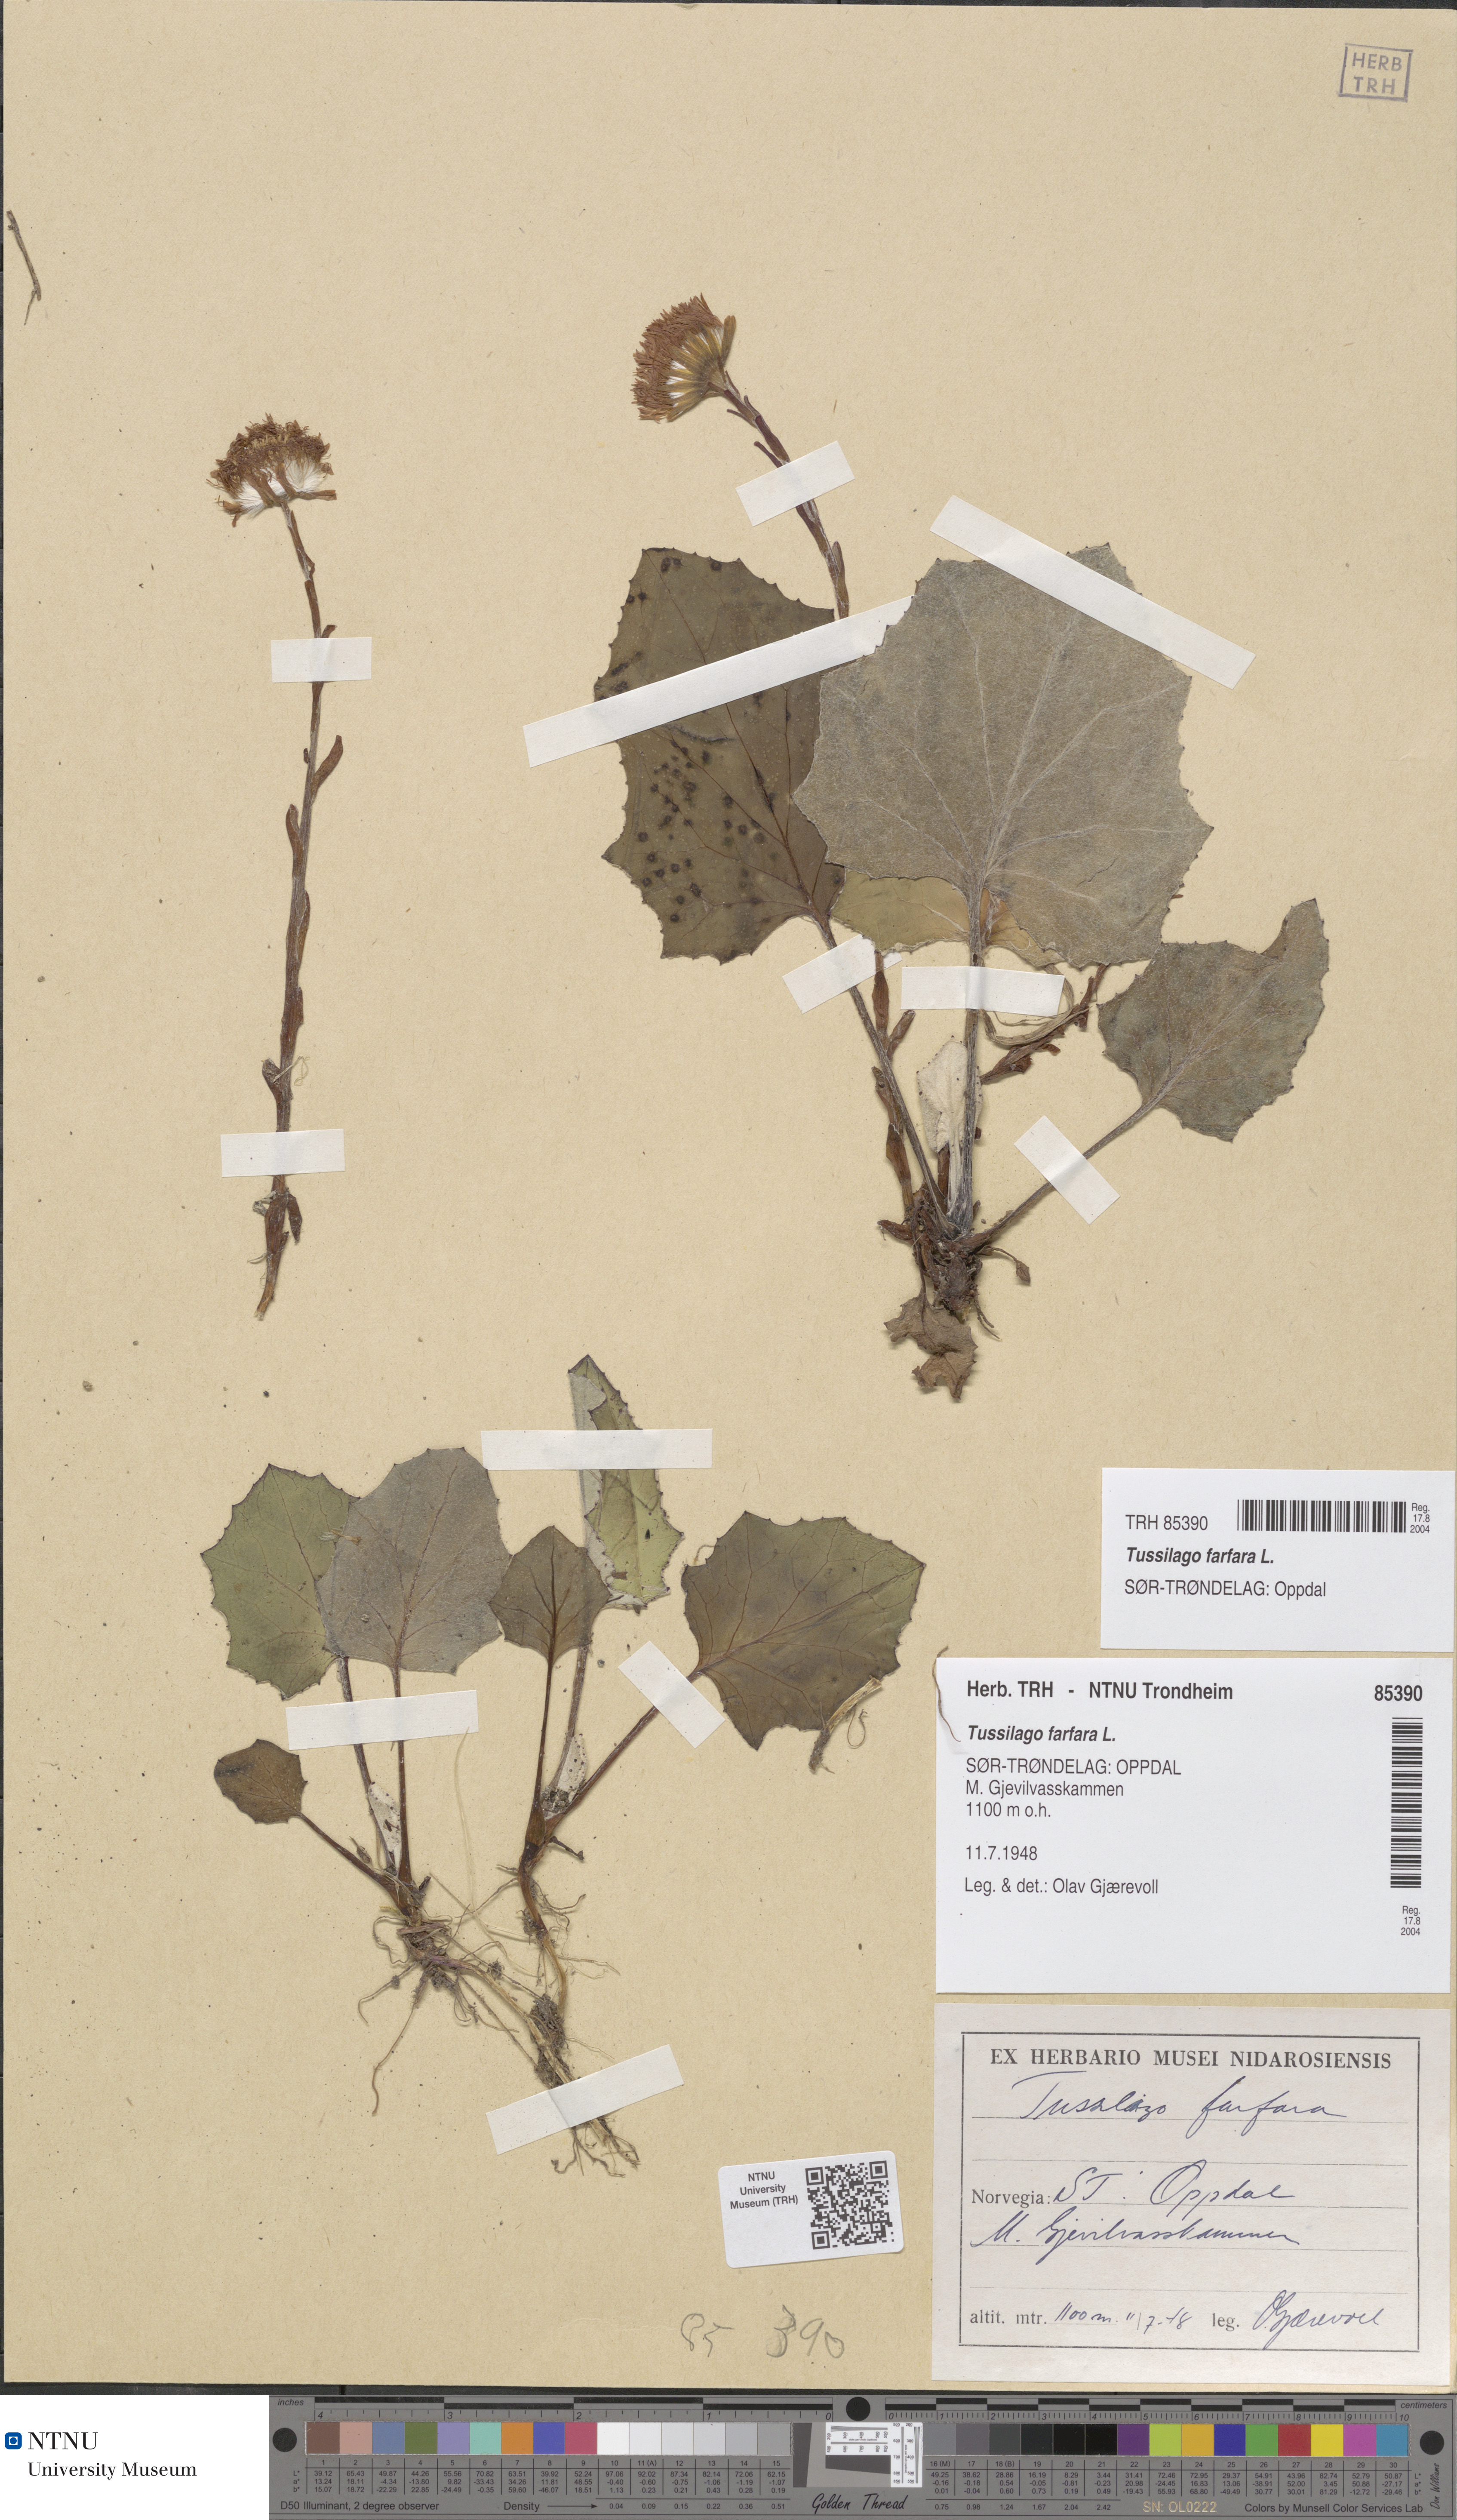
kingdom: Plantae
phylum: Tracheophyta
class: Magnoliopsida
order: Asterales
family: Asteraceae
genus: Tussilago
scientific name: Tussilago farfara
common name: Coltsfoot
